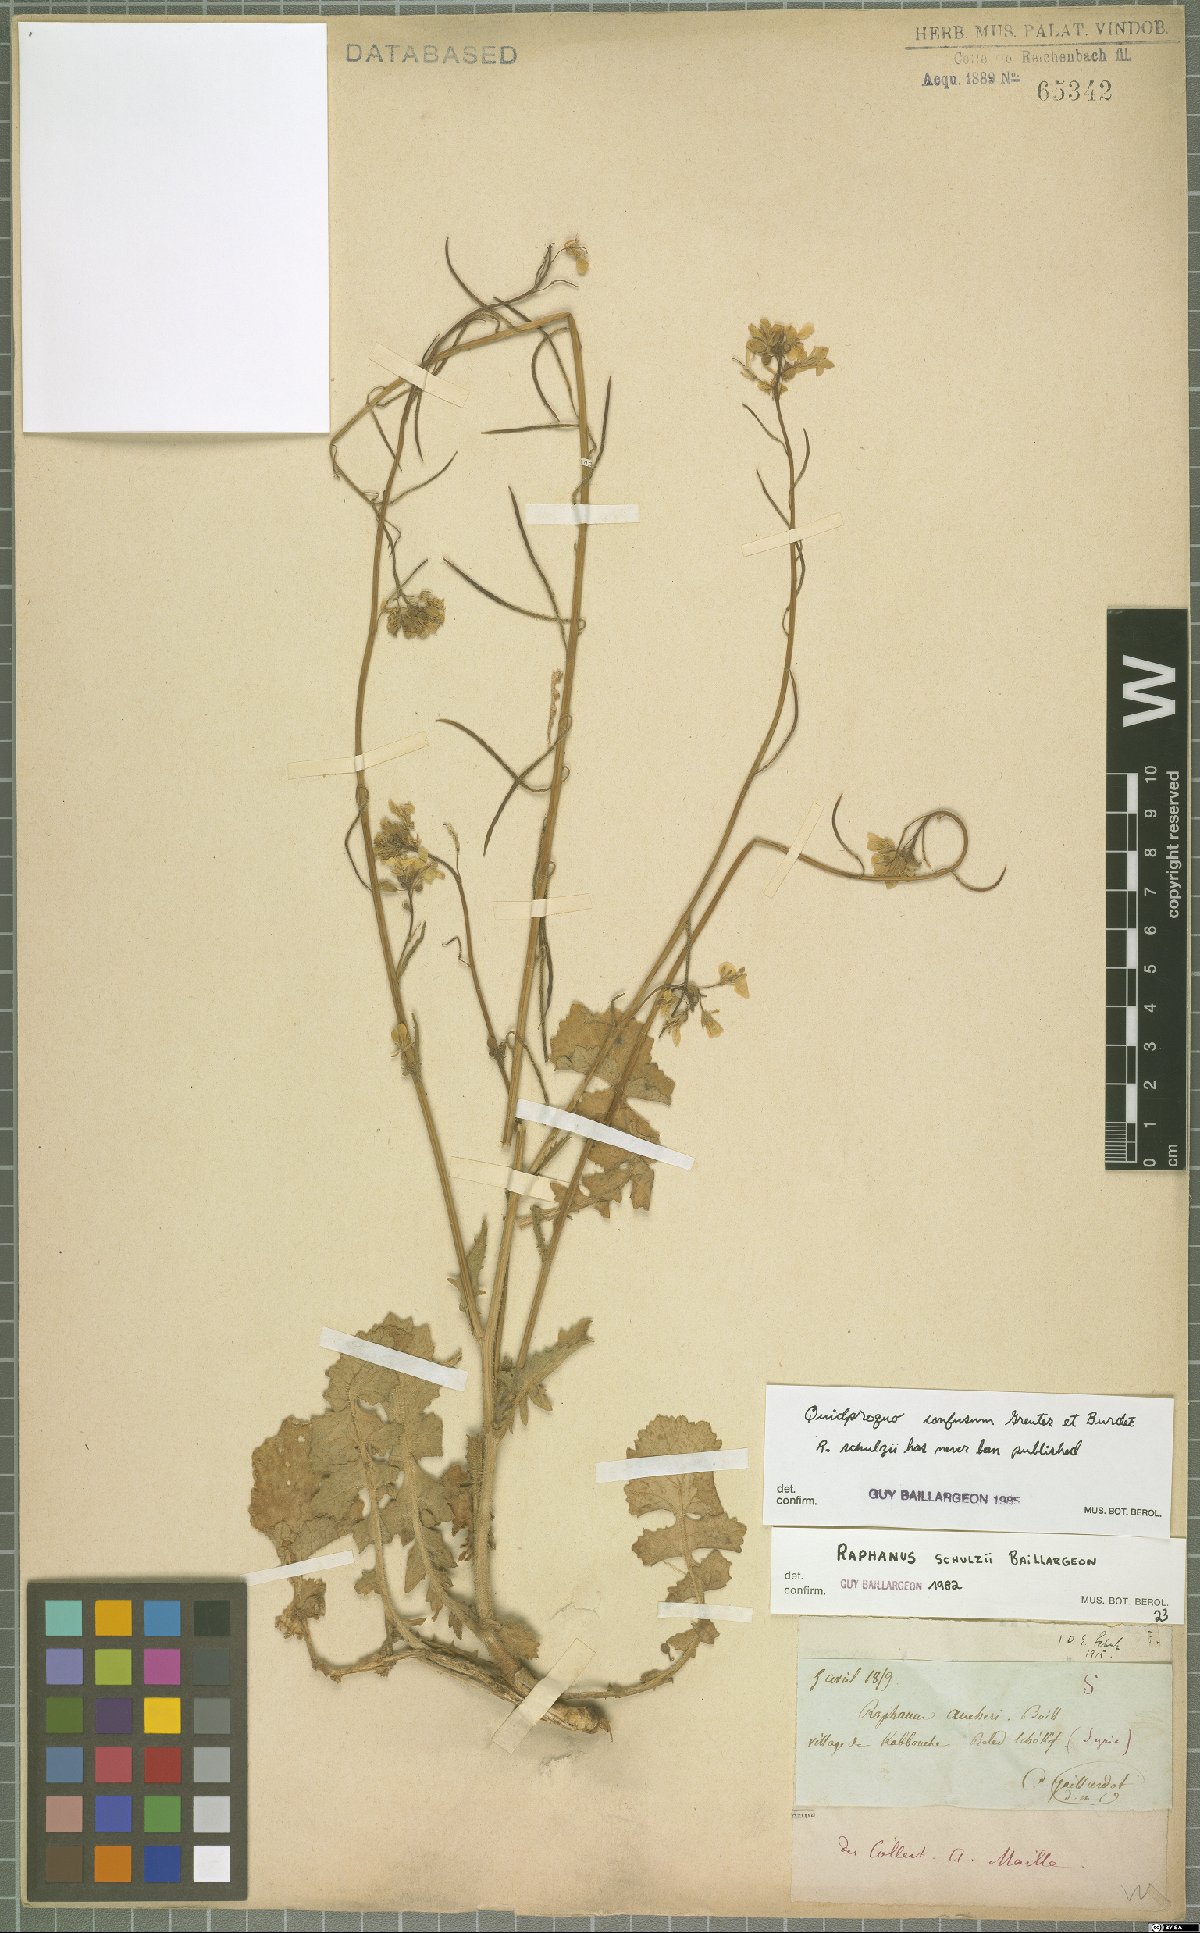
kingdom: Plantae
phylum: Tracheophyta
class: Magnoliopsida
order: Brassicales
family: Brassicaceae
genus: Raphanus
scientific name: Raphanus confusus
